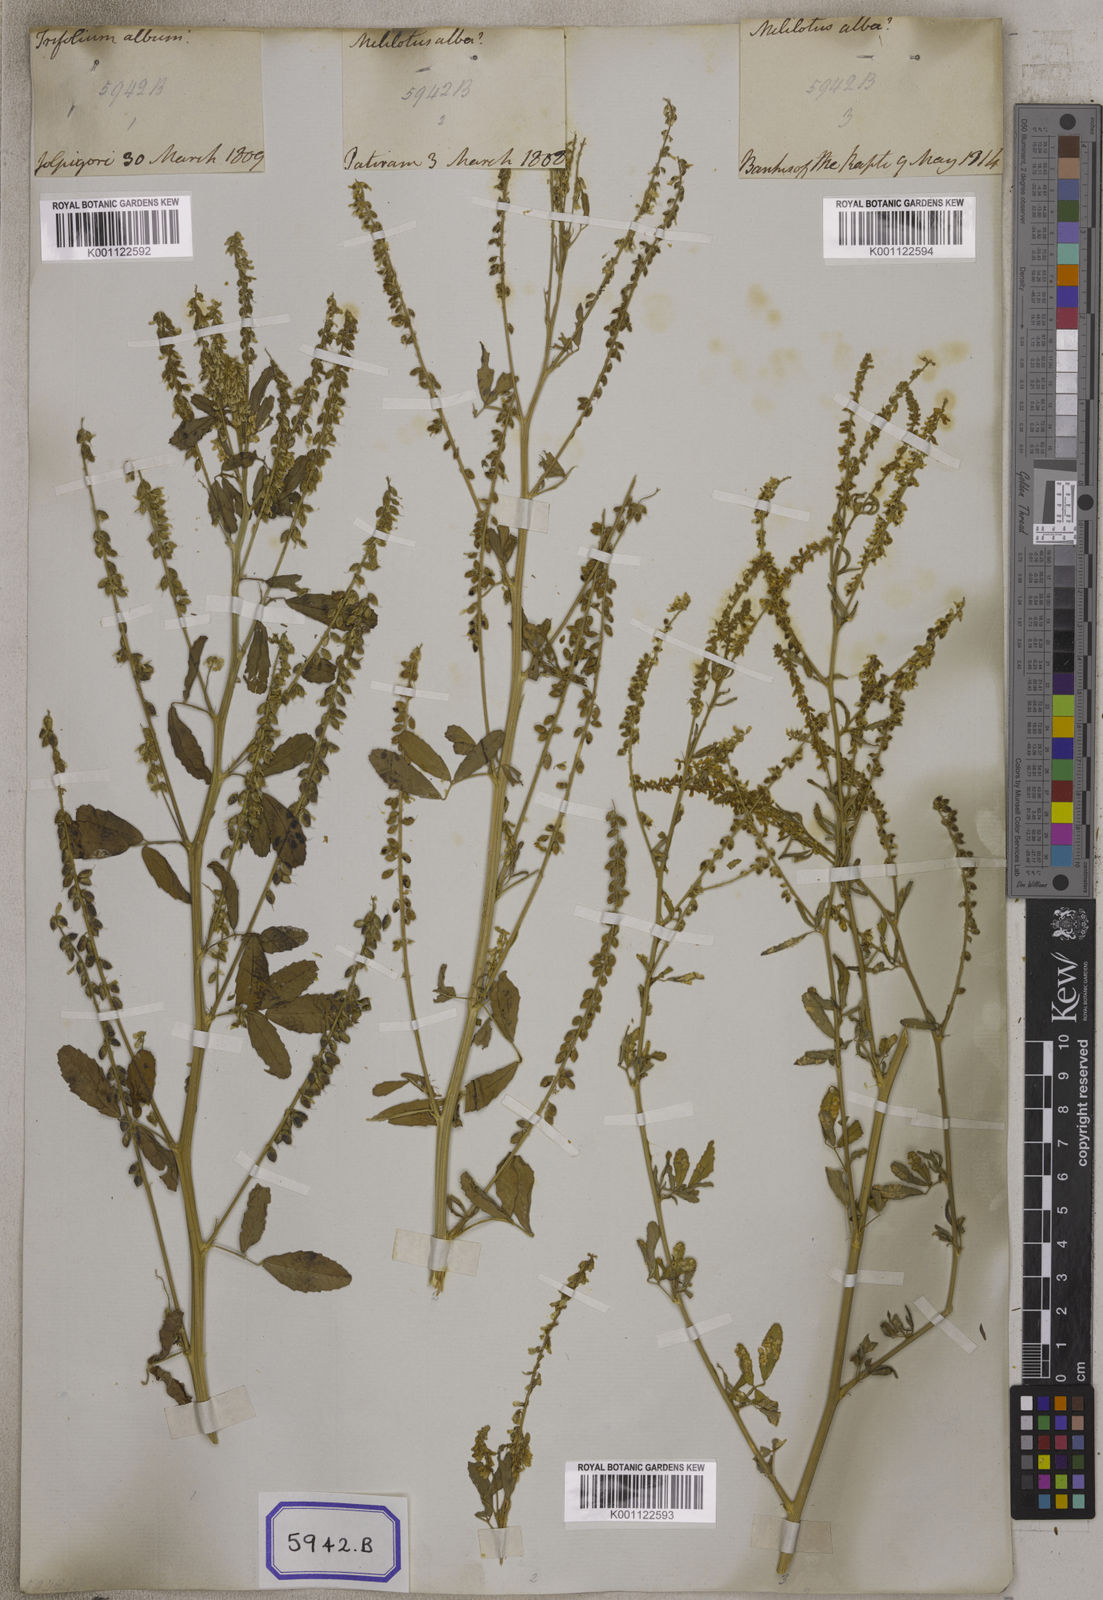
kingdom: Plantae
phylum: Tracheophyta
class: Magnoliopsida
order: Fabales
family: Fabaceae
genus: Melilotus
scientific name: Melilotus altissimus
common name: Tall melilot
